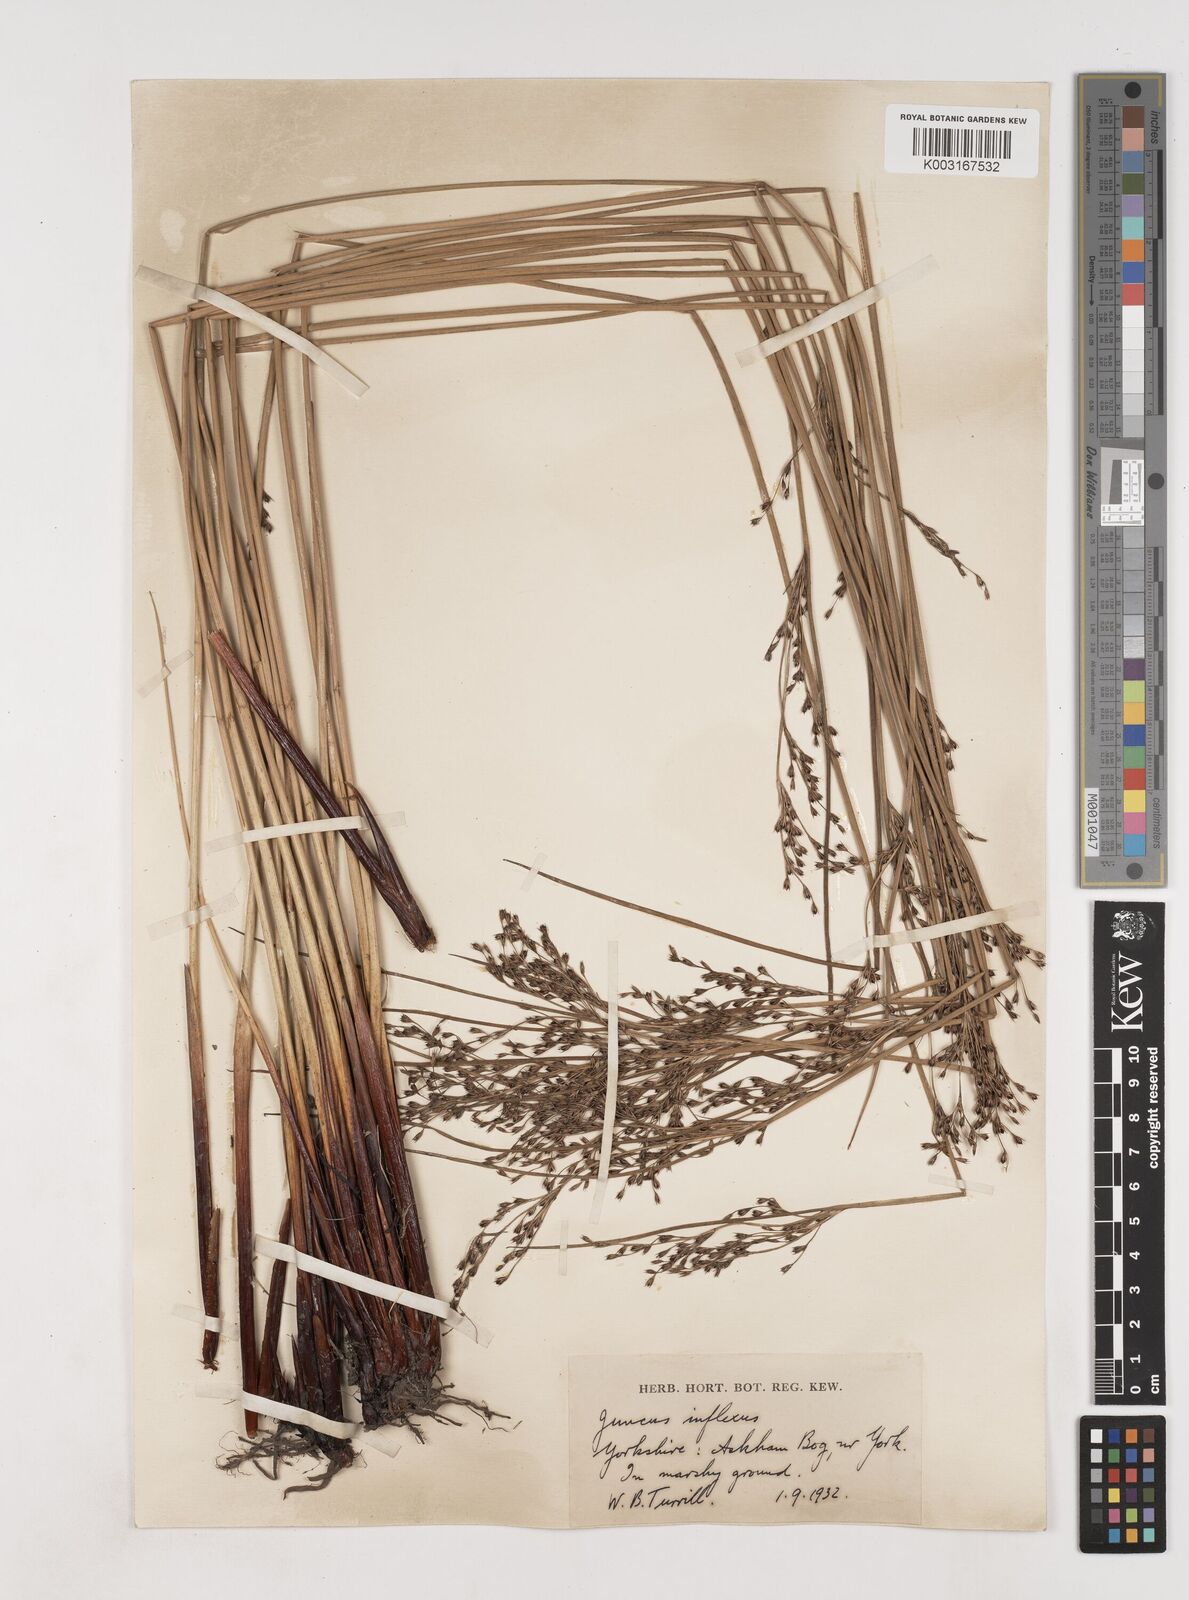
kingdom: Plantae
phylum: Tracheophyta
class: Liliopsida
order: Poales
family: Juncaceae
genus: Juncus
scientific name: Juncus inflexus
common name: Hard rush
